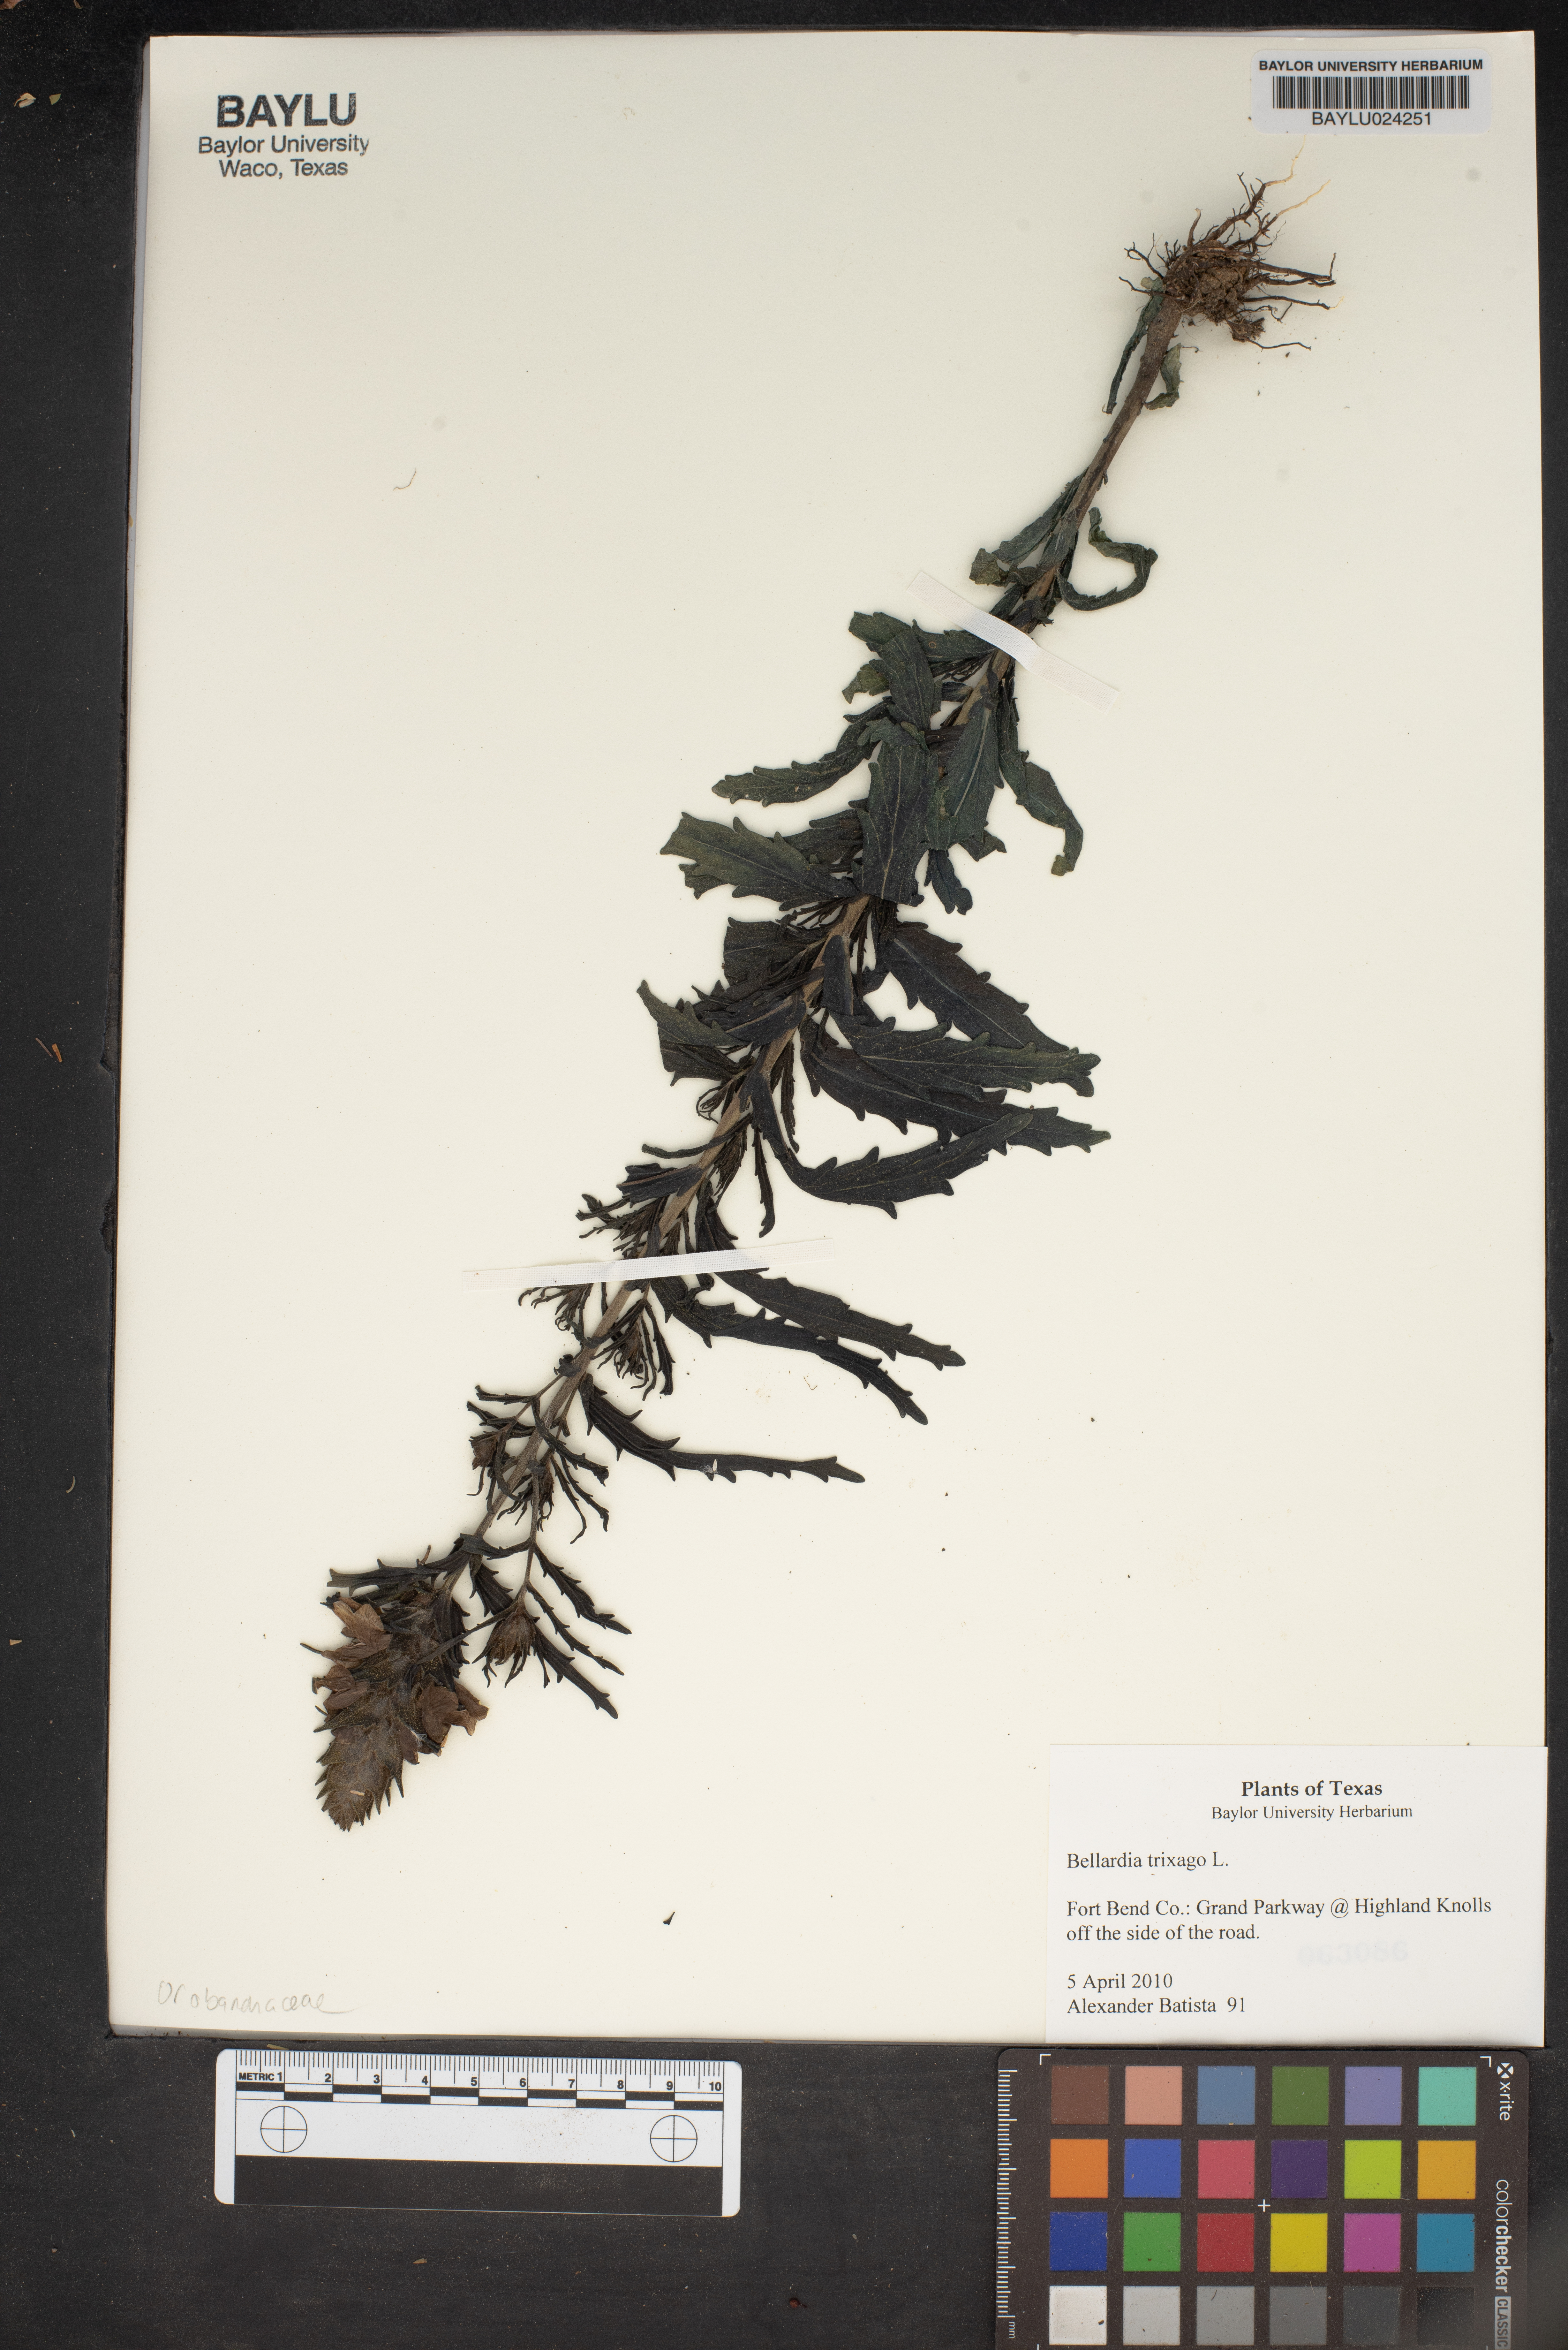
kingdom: Plantae
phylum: Tracheophyta
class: Magnoliopsida
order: Lamiales
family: Orobanchaceae
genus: Bellardia
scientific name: Bellardia trixago
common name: Mediterranean lineseed
